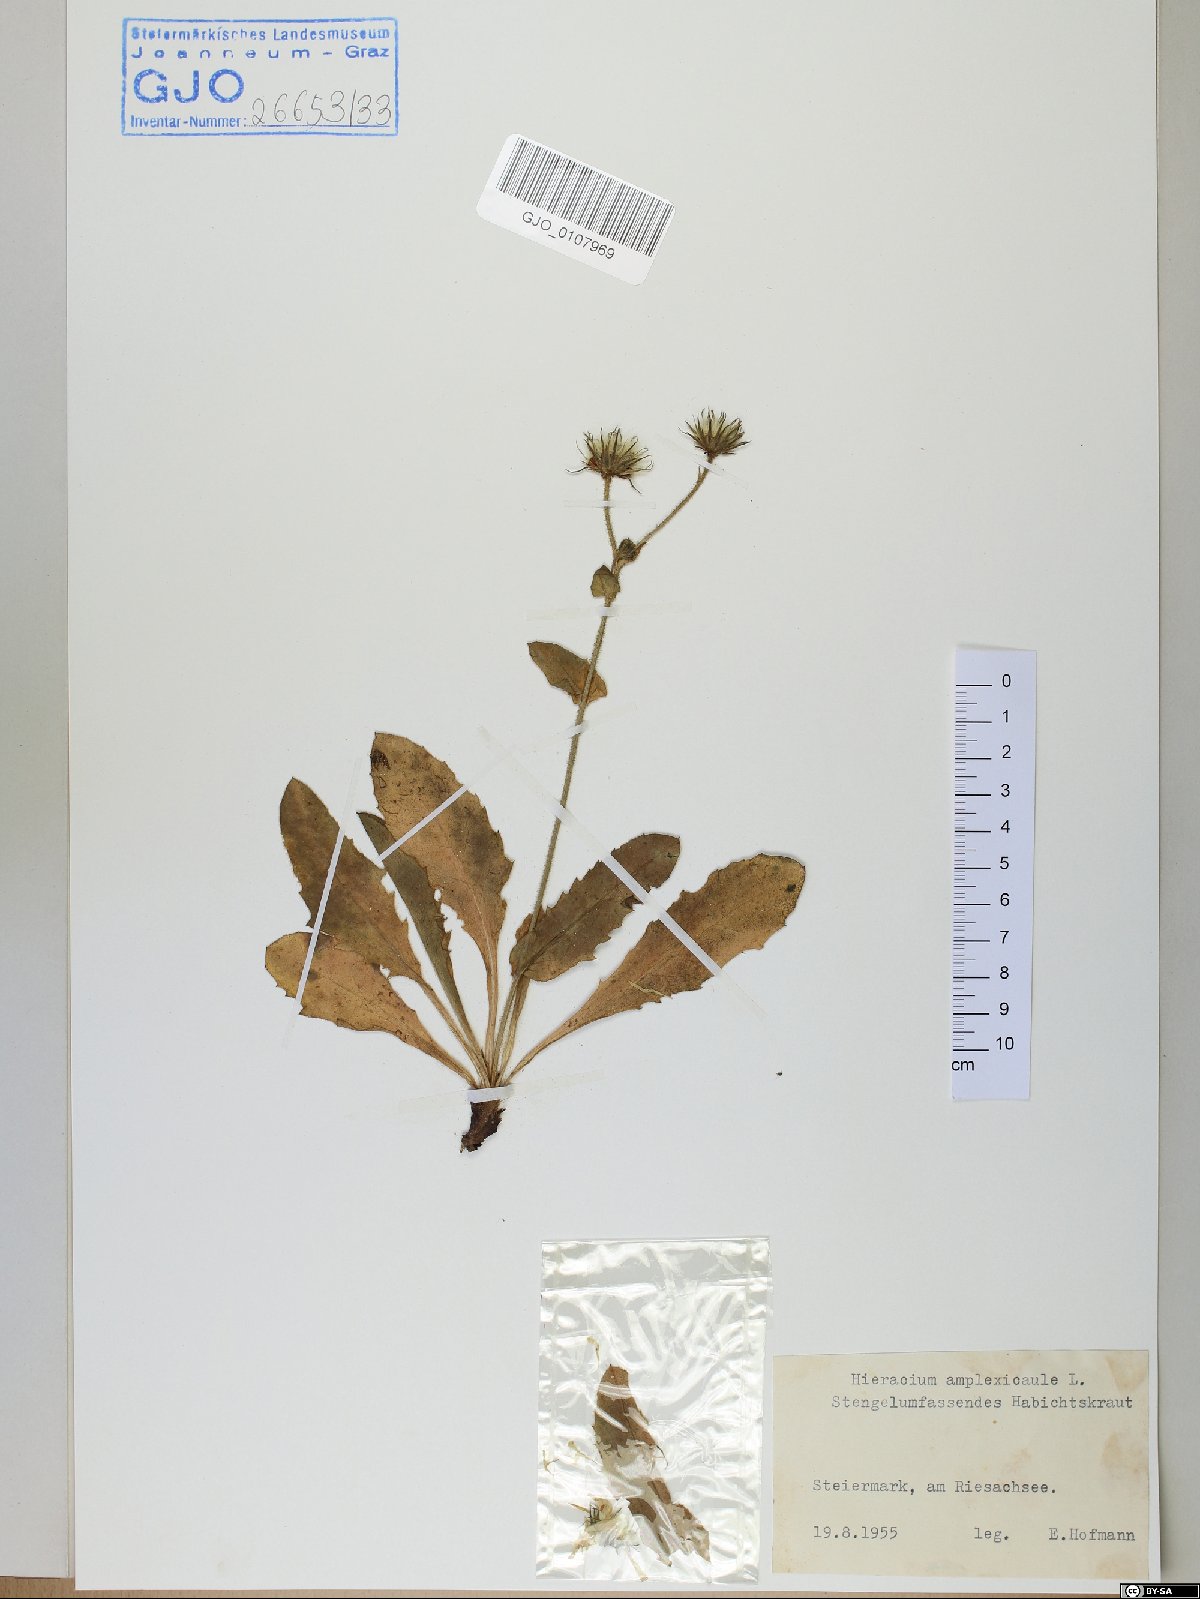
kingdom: Plantae
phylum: Tracheophyta
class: Magnoliopsida
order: Asterales
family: Asteraceae
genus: Hieracium
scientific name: Hieracium amplexicaule
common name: Sticky hawkweed
